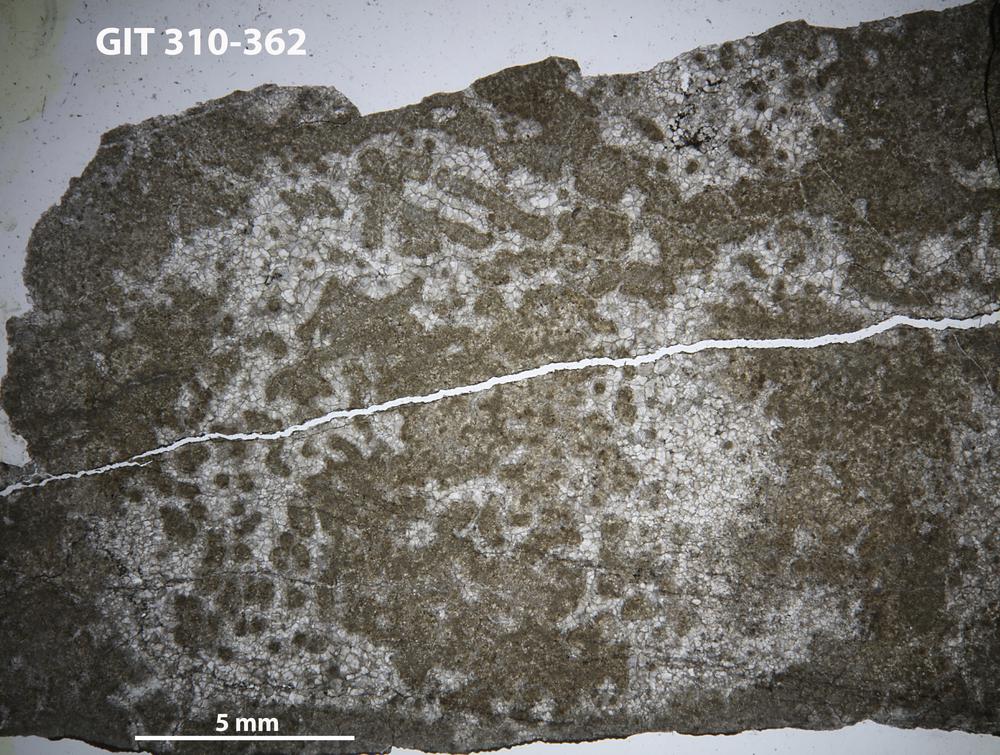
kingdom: Protozoa
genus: Pachystroma
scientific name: Pachystroma
